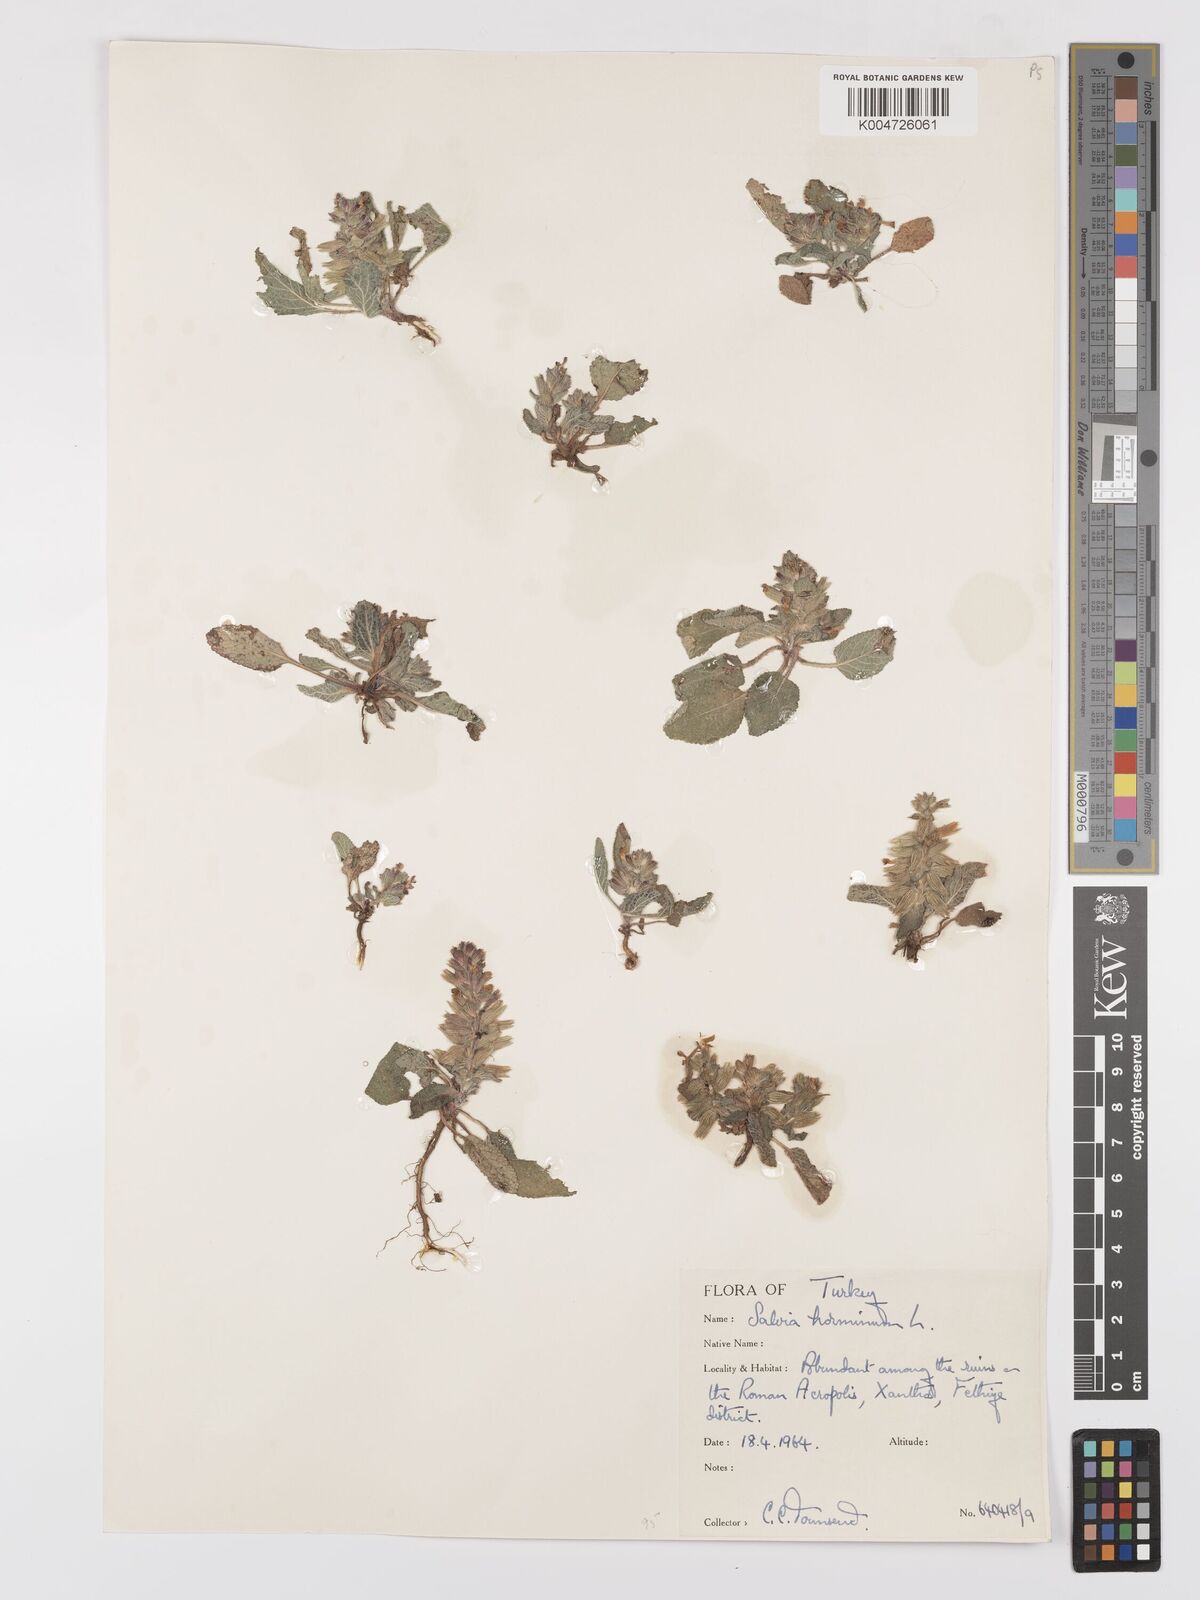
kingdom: Plantae
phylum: Tracheophyta
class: Magnoliopsida
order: Lamiales
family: Lamiaceae
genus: Salvia
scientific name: Salvia viridis
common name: Annual clary
